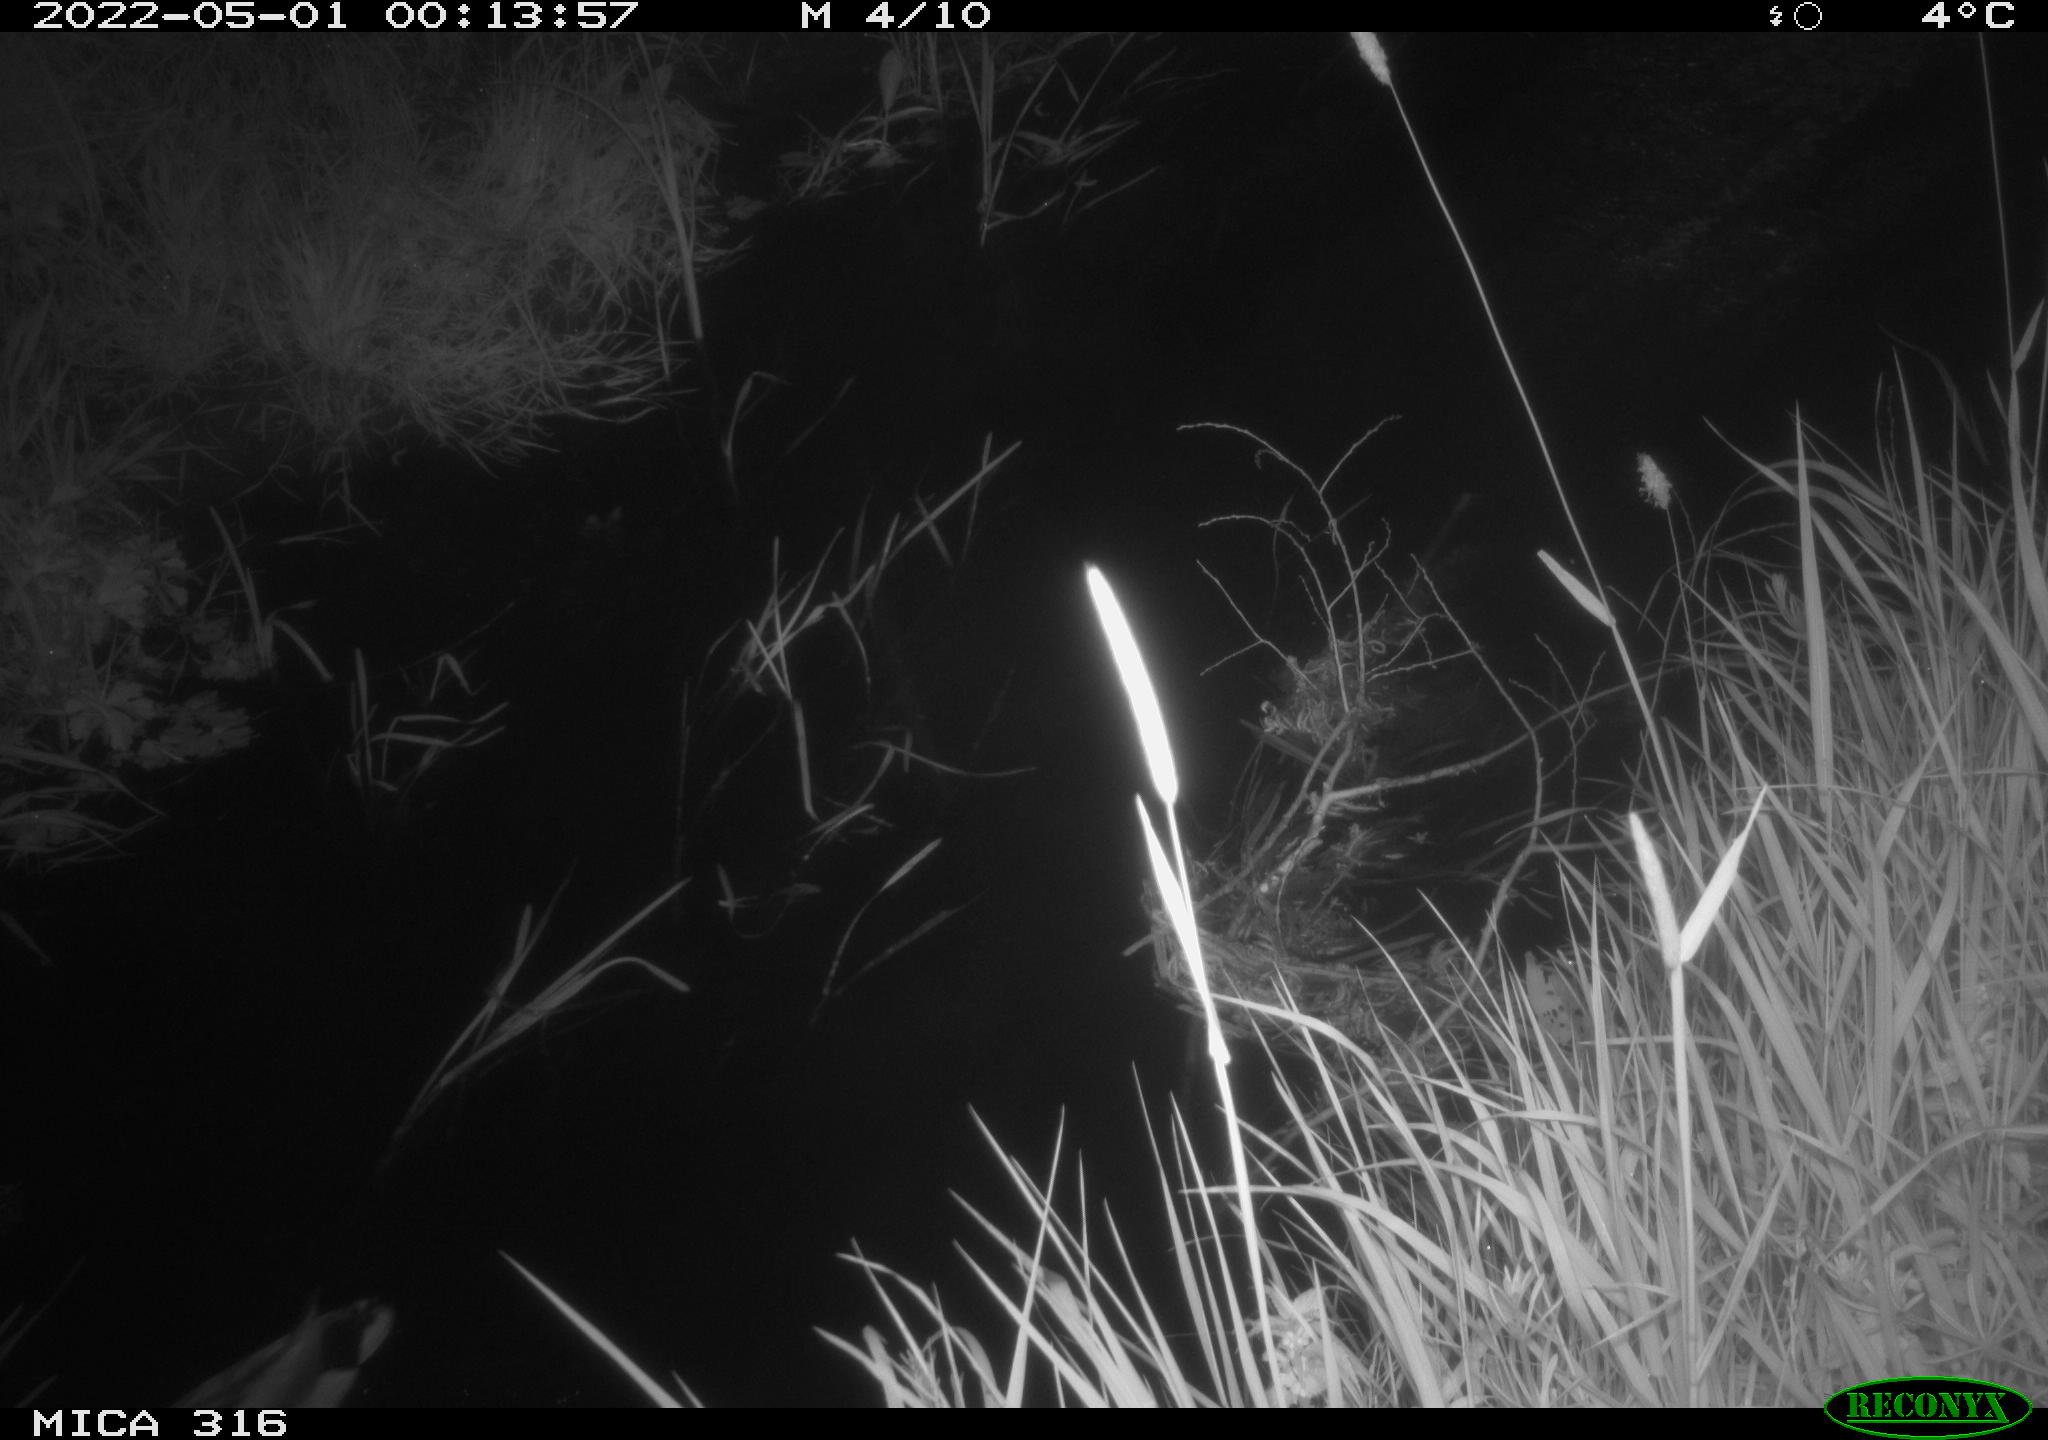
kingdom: Animalia
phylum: Chordata
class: Aves
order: Anseriformes
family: Anatidae
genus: Anas
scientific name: Anas platyrhynchos
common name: Mallard
